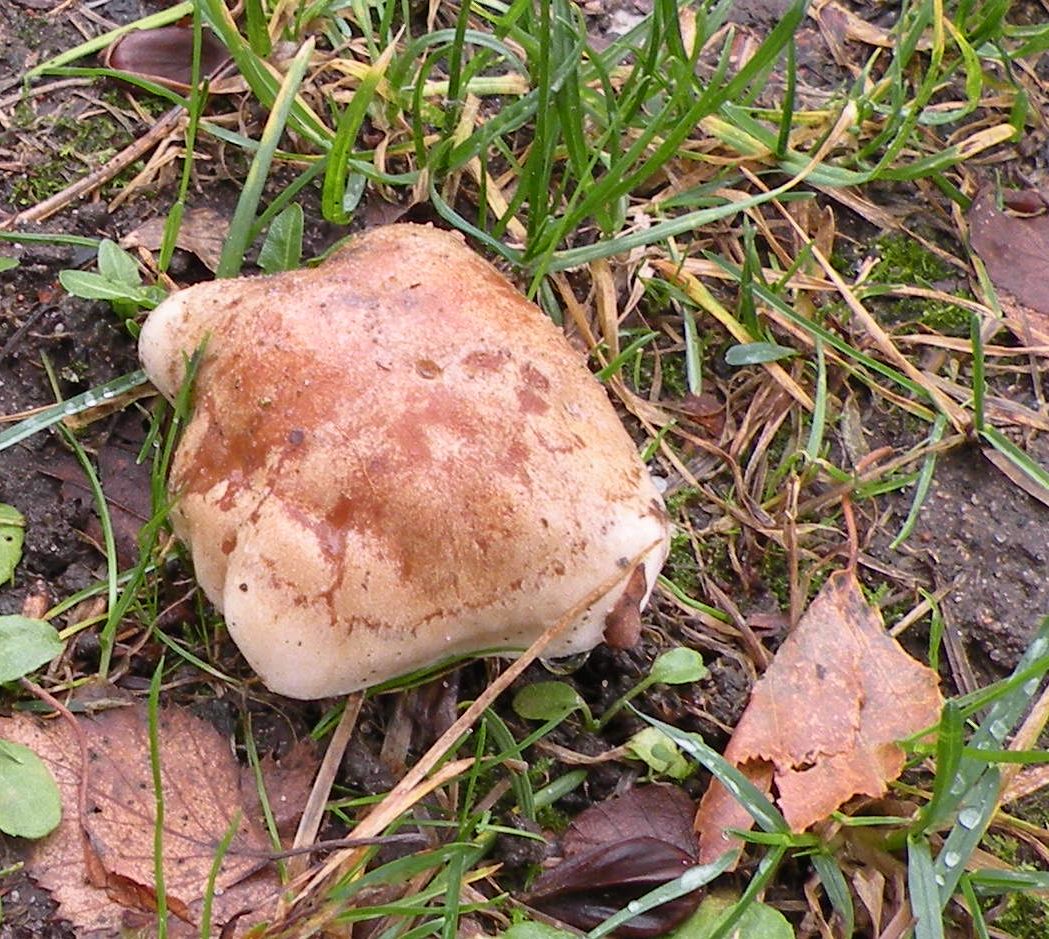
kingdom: Fungi
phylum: Basidiomycota
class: Agaricomycetes
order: Agaricales
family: Hymenogastraceae
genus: Hebeloma
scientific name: Hebeloma crustuliniforme
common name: almindelig tåreblad
